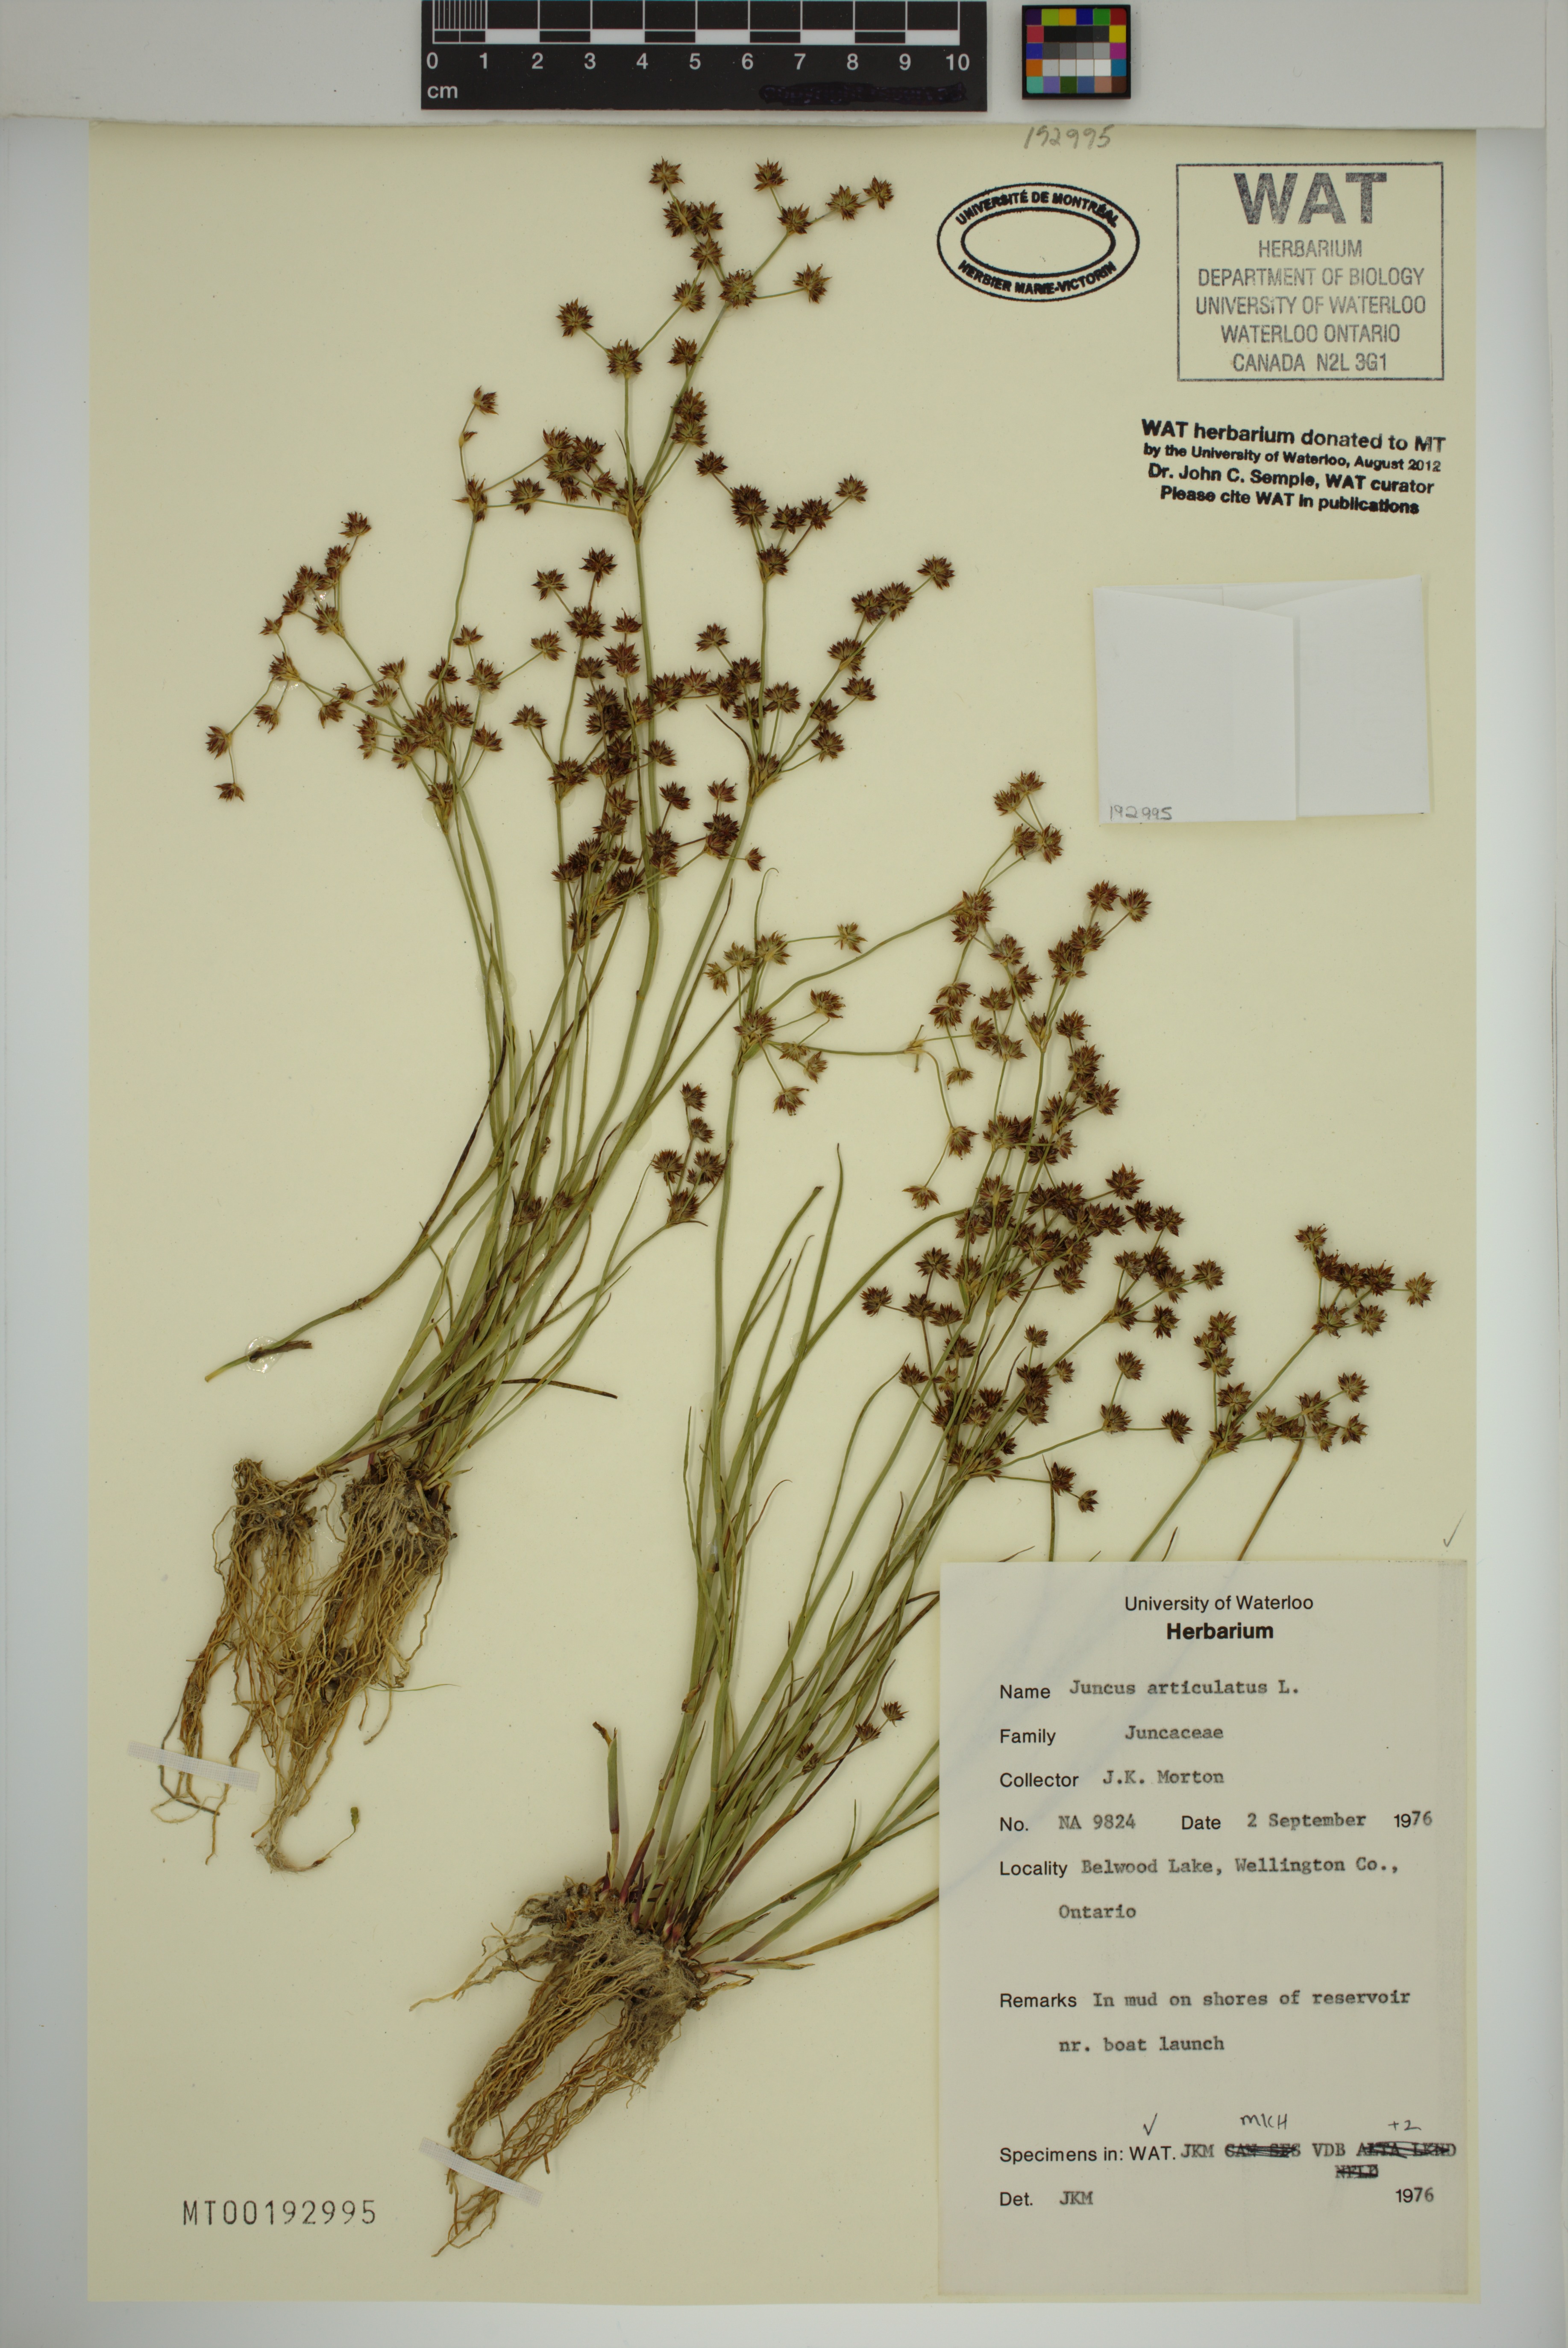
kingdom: Plantae
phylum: Tracheophyta
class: Liliopsida
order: Poales
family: Juncaceae
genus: Juncus
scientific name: Juncus articulatus
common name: Jointed rush
